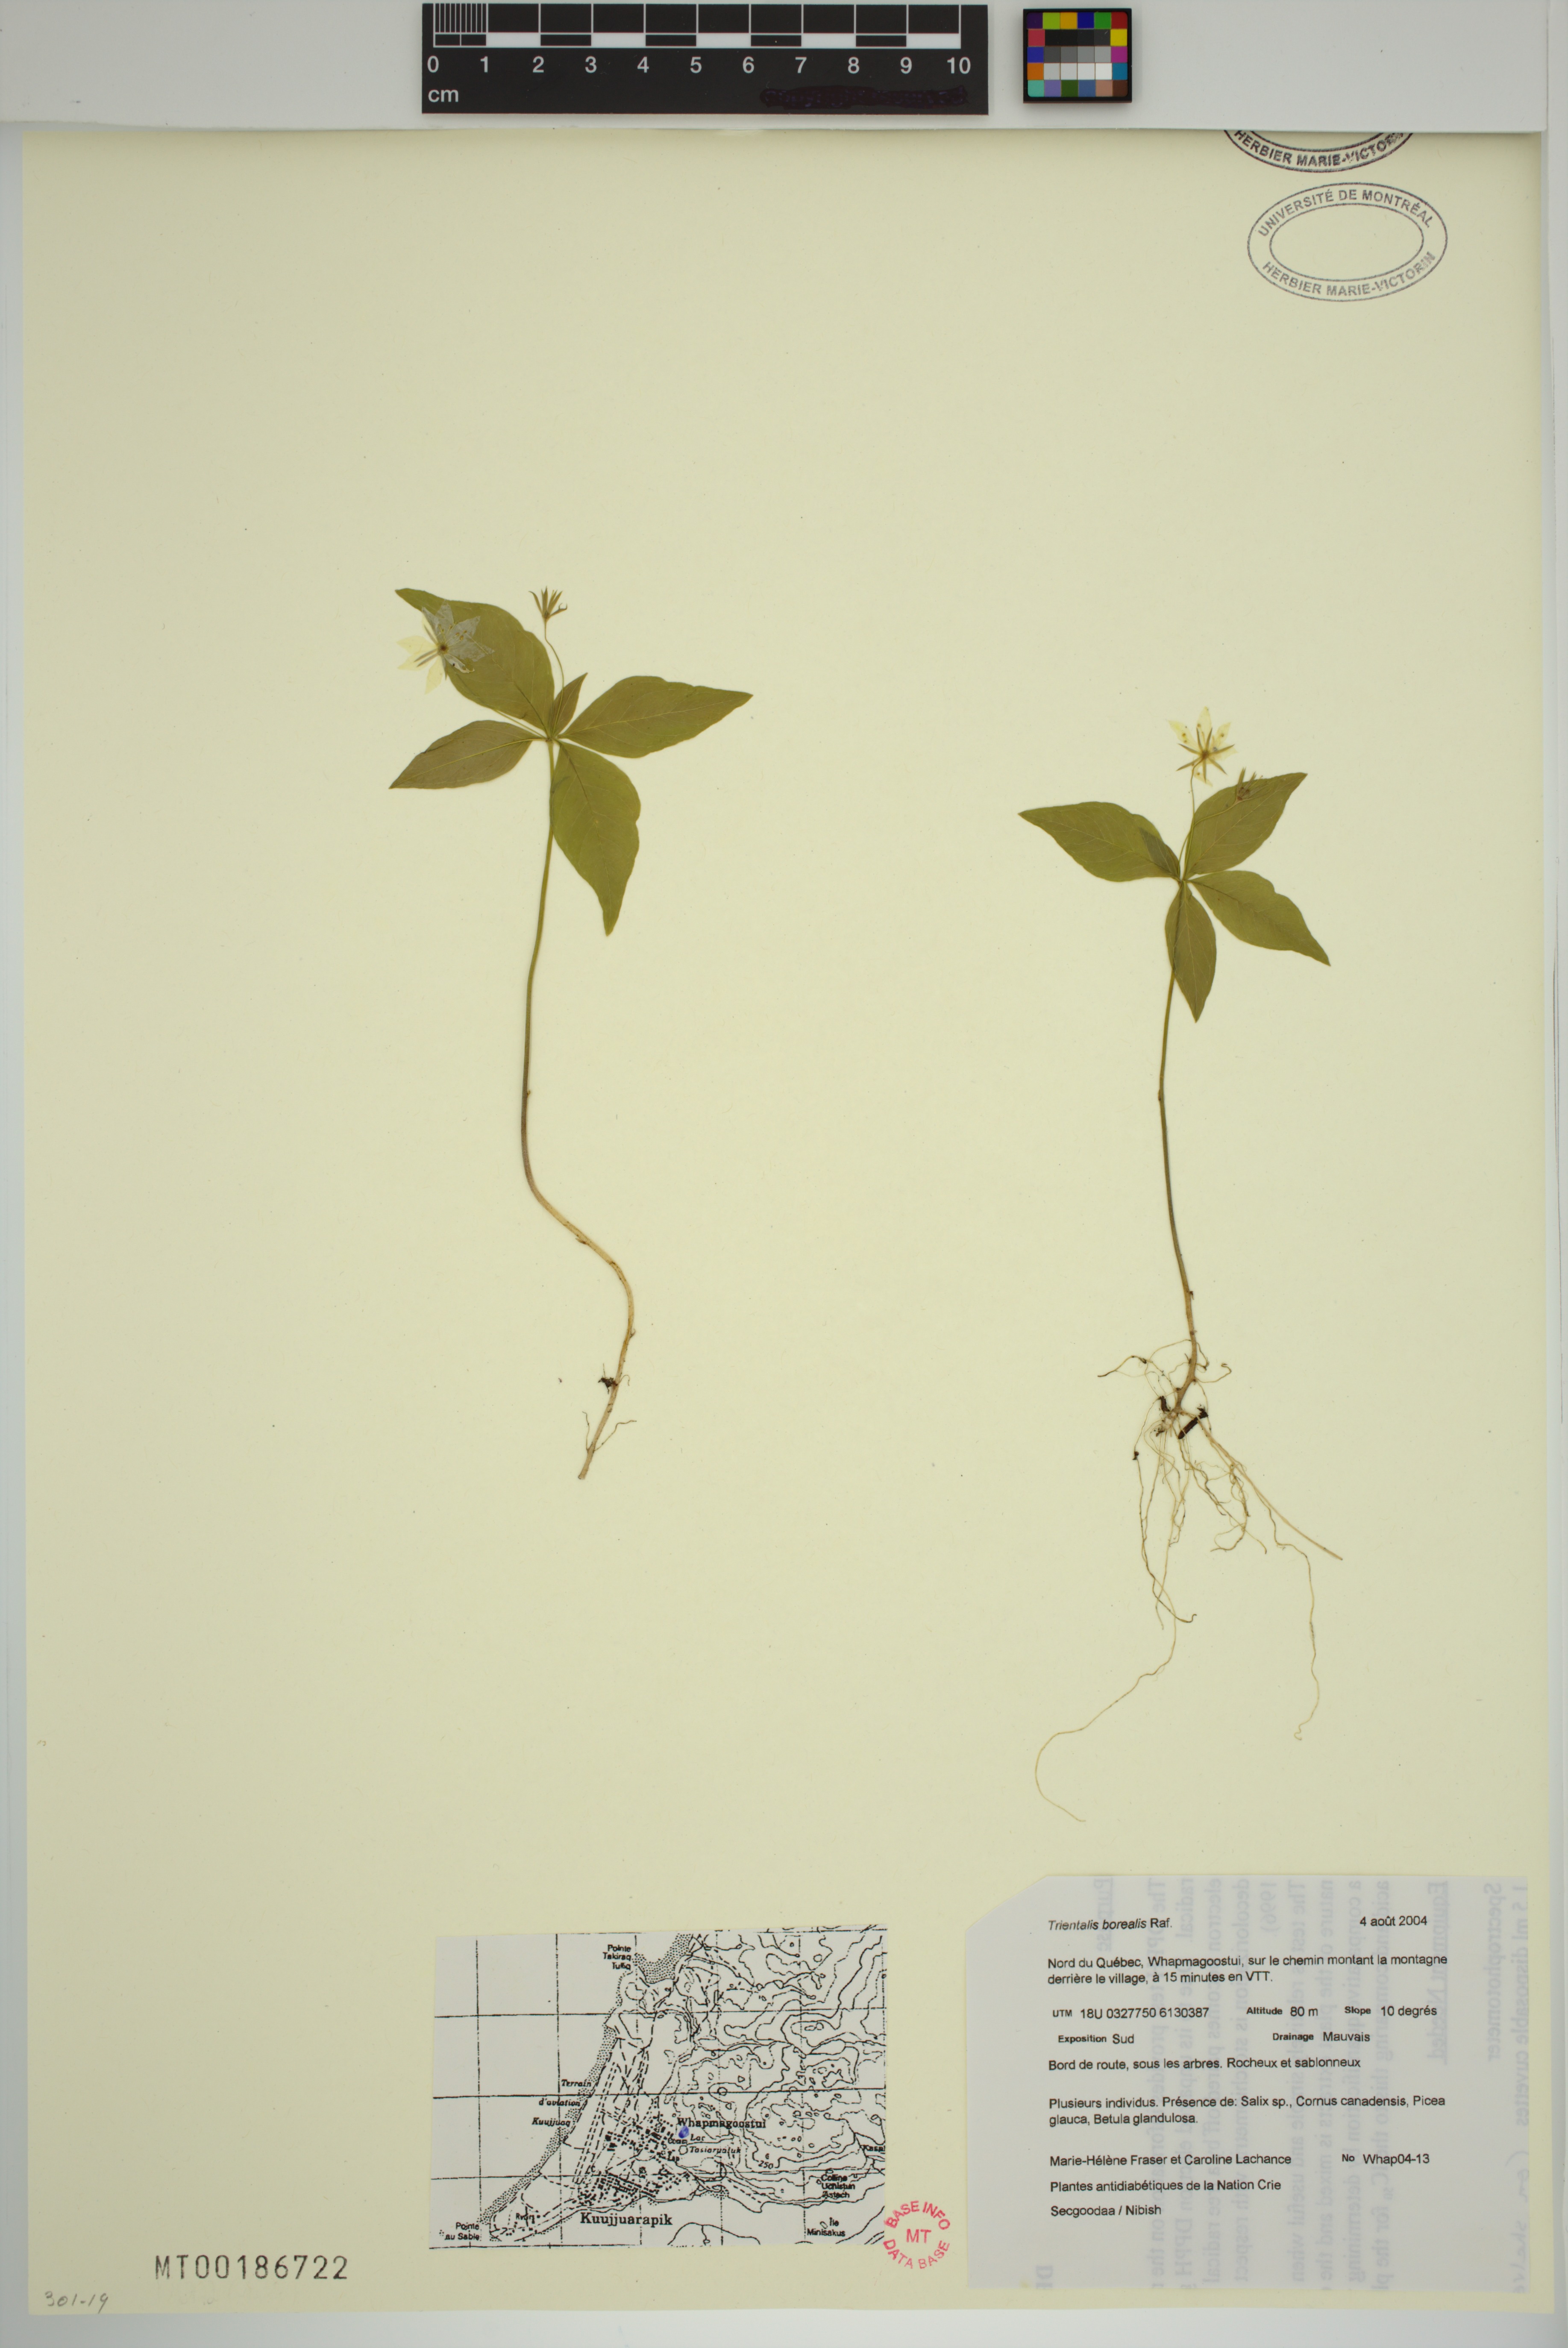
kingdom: Plantae
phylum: Tracheophyta
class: Magnoliopsida
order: Ericales
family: Primulaceae
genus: Lysimachia
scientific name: Lysimachia borealis
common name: American starflower
